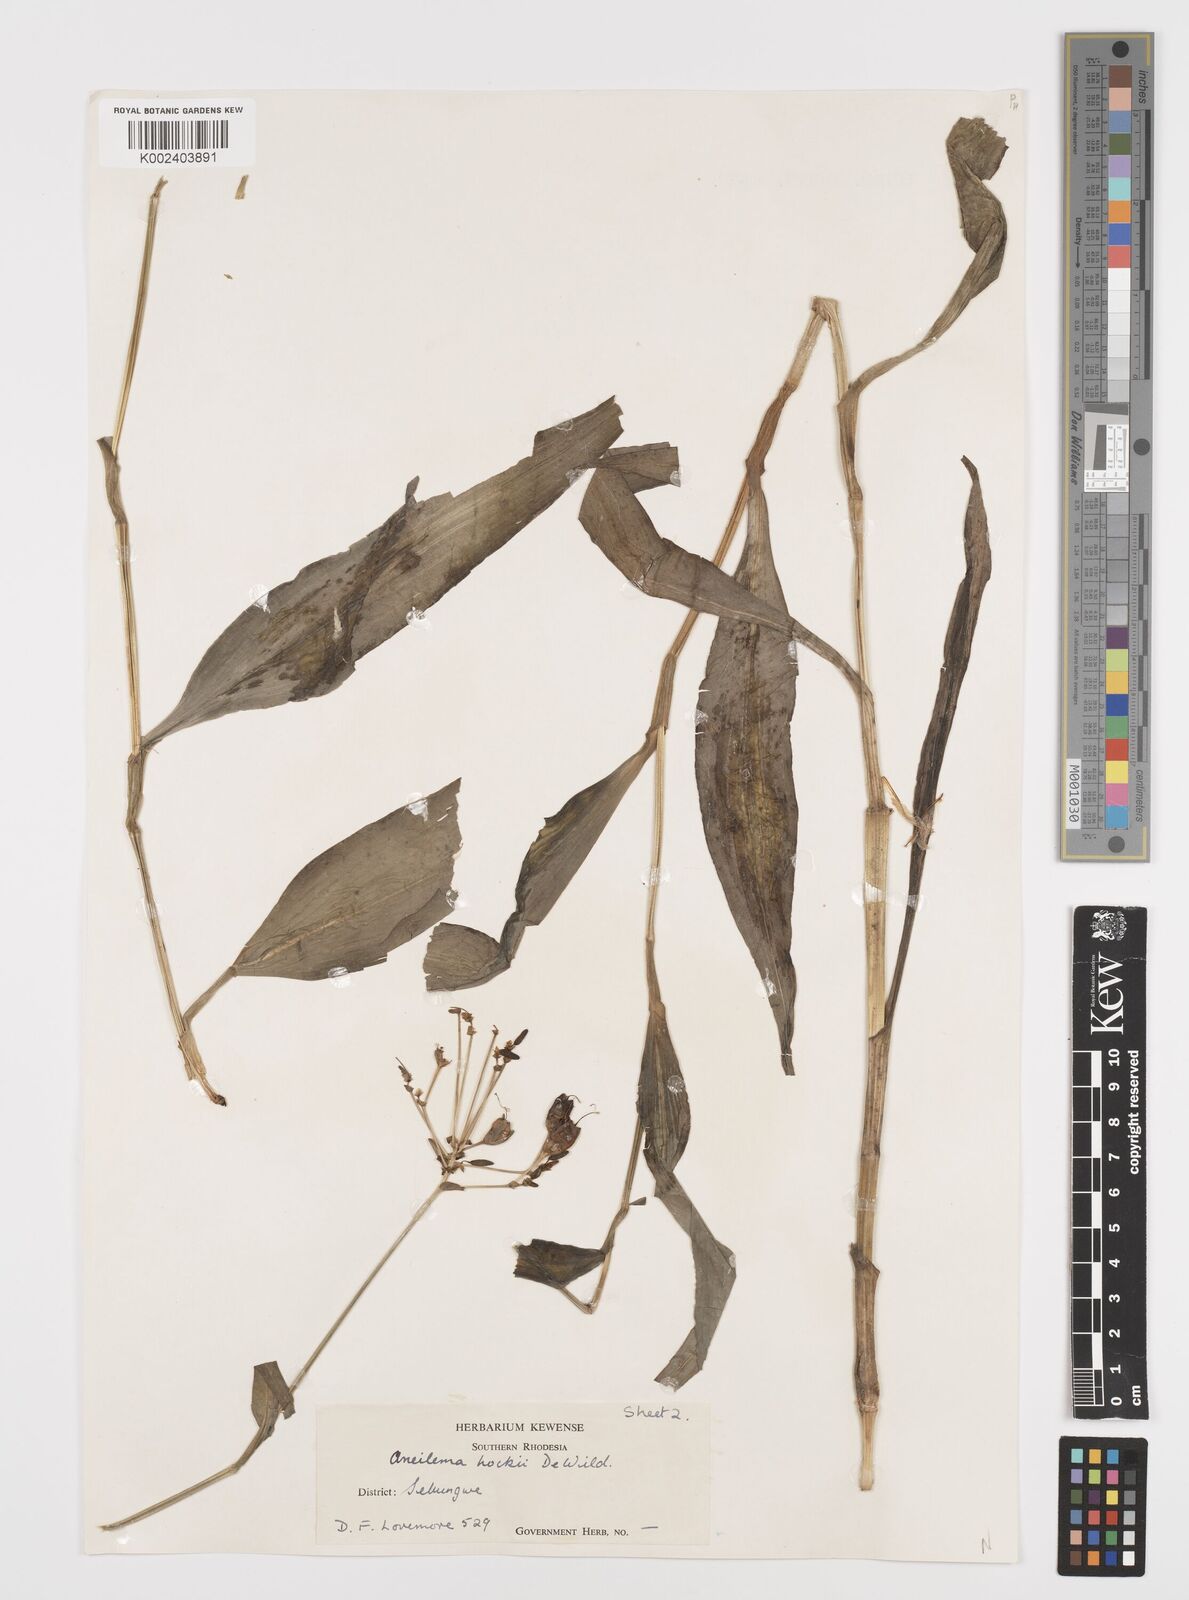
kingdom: Plantae
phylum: Tracheophyta
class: Liliopsida
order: Commelinales
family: Commelinaceae
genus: Aneilema
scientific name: Aneilema hockii
